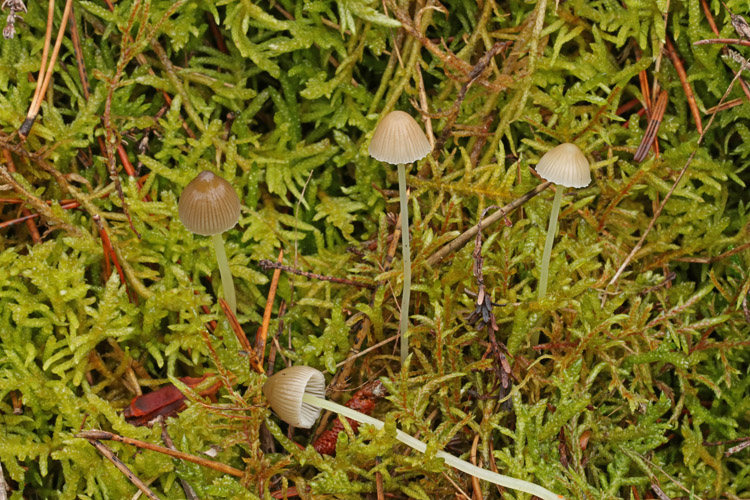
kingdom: Fungi
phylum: Basidiomycota
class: Agaricomycetes
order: Agaricales
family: Mycenaceae
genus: Mycena
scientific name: Mycena epipterygia
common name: gulstokket huesvamp
